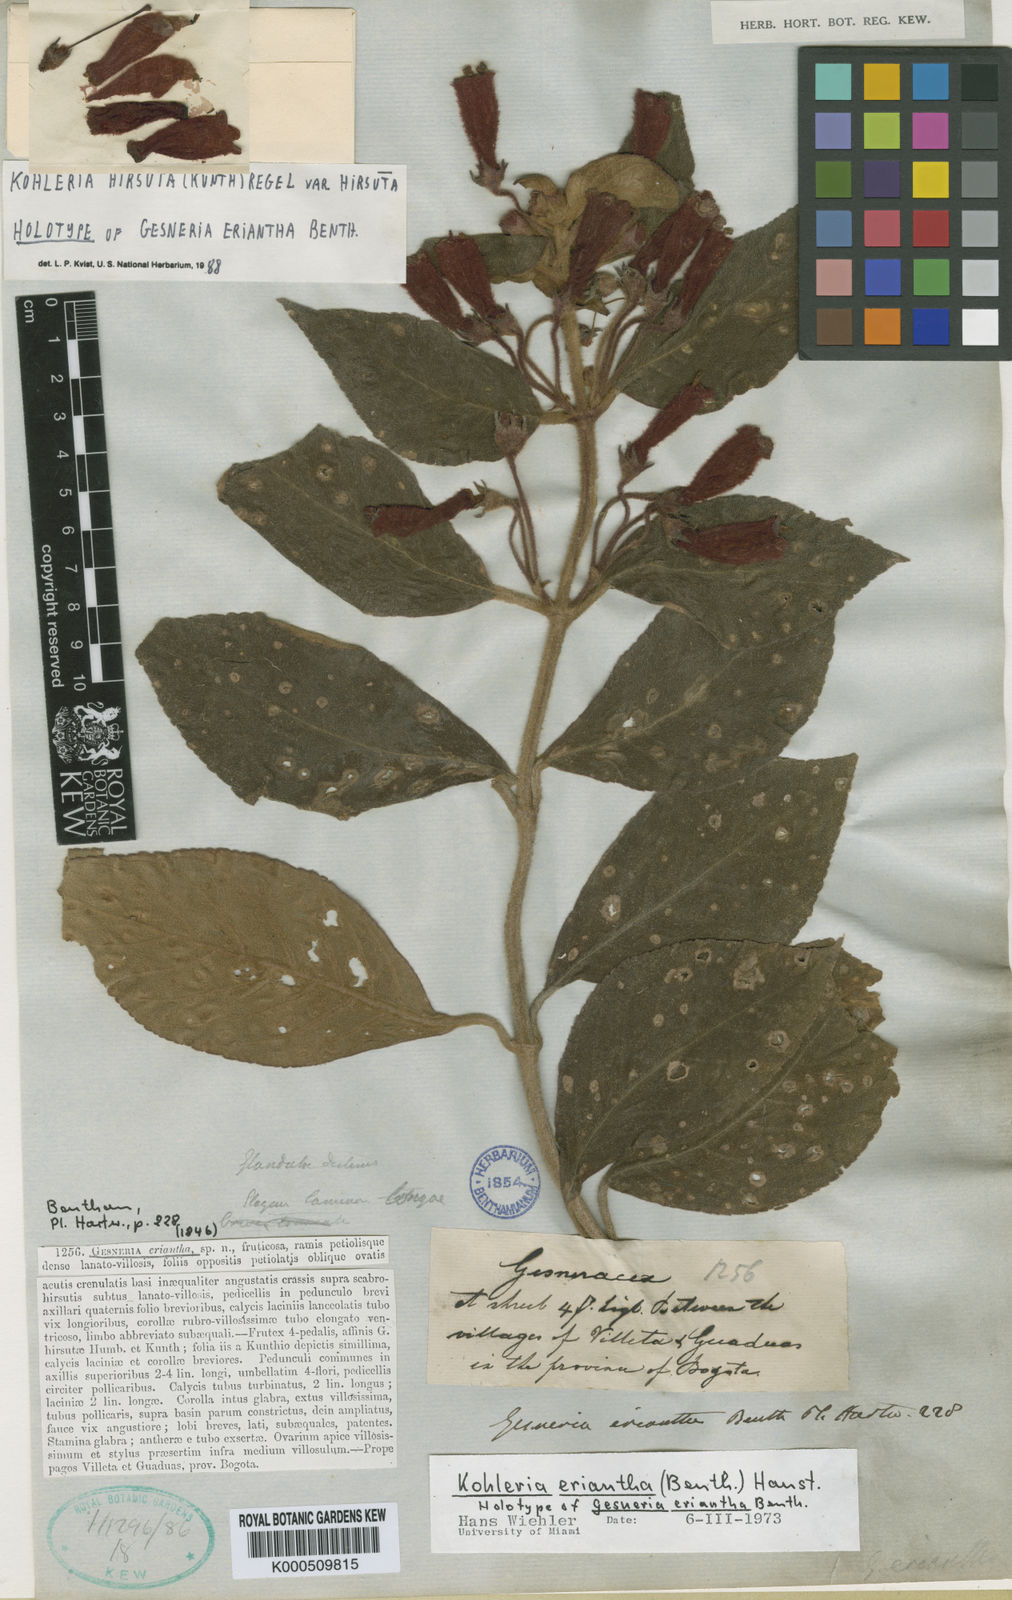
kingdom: Plantae
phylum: Tracheophyta
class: Magnoliopsida
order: Lamiales
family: Gesneriaceae
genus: Kohleria
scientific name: Kohleria hirsuta
